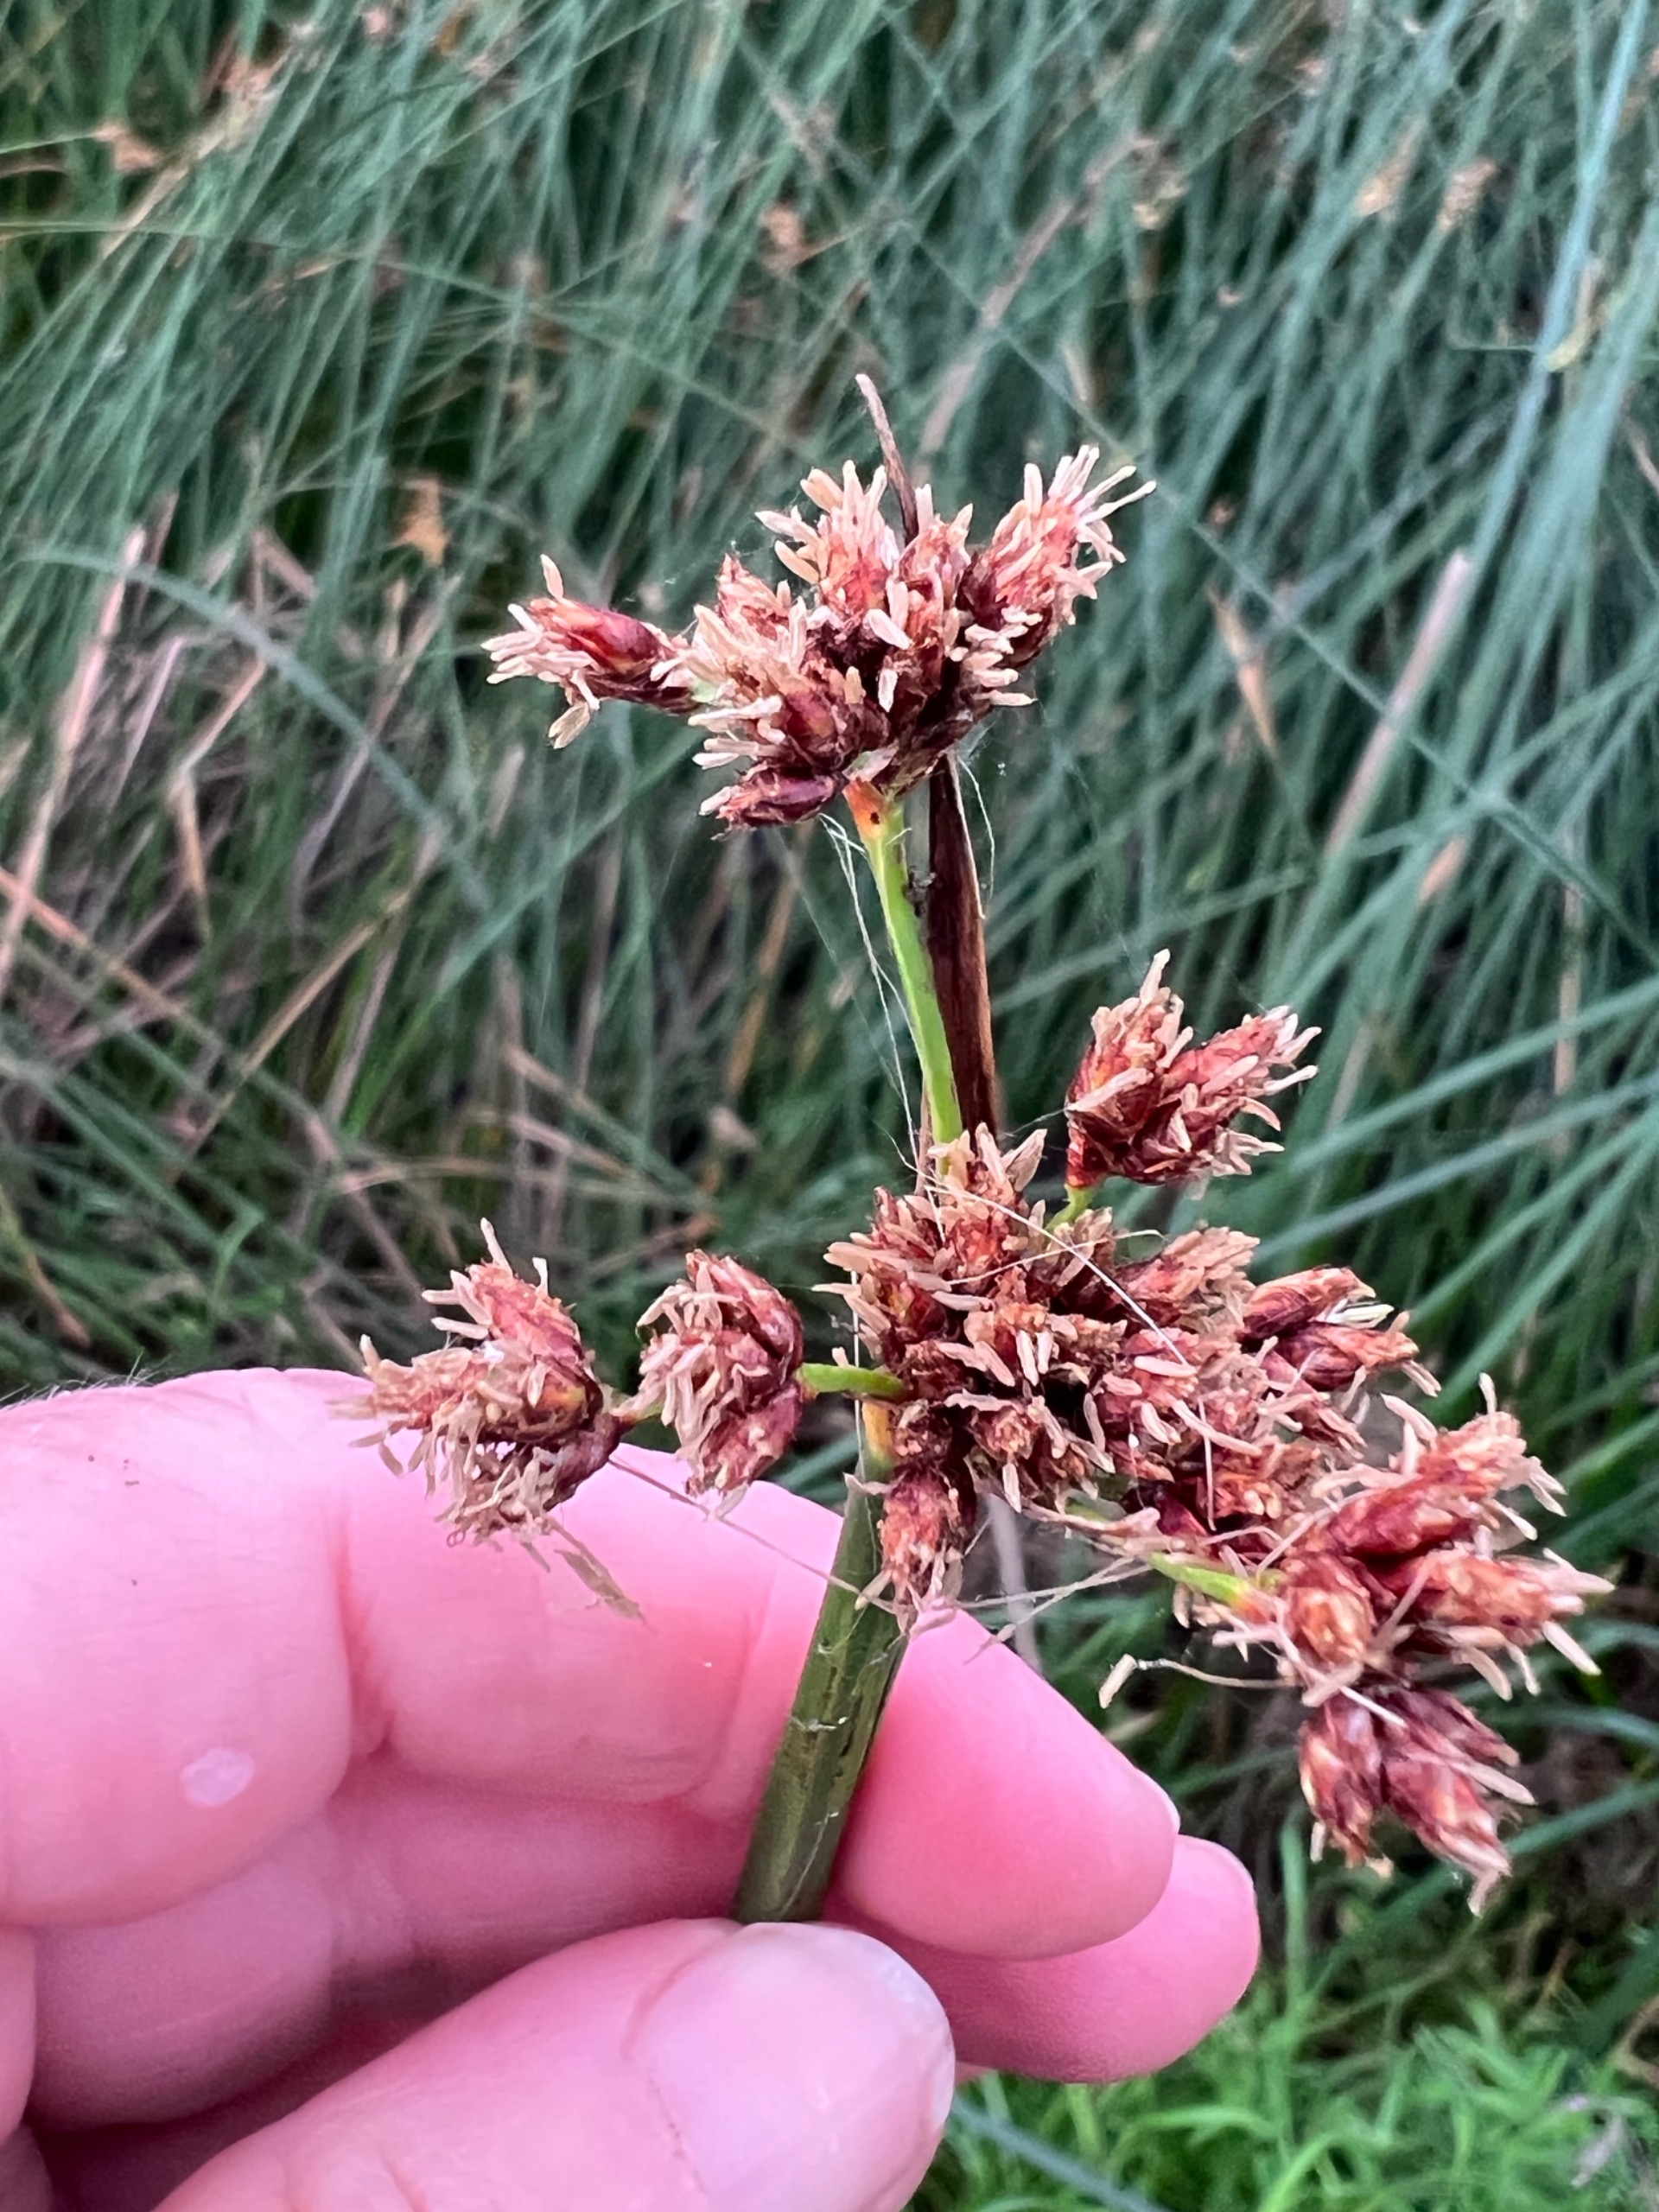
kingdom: Plantae
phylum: Tracheophyta
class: Liliopsida
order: Poales
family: Cyperaceae
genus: Schoenoplectus
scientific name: Schoenoplectus lacustris
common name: Sø-kogleaks
